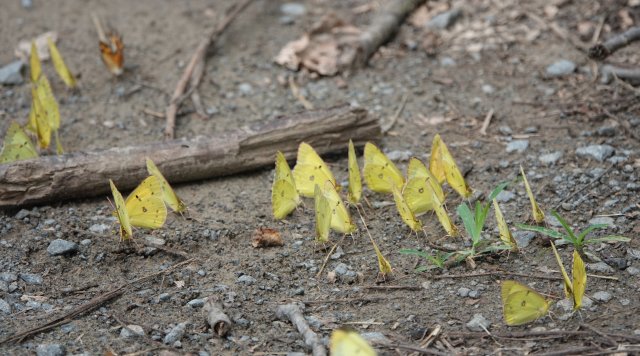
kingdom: Animalia
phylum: Arthropoda
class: Insecta
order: Lepidoptera
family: Pieridae
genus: Colias
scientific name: Colias philodice
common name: Clouded Sulphur
